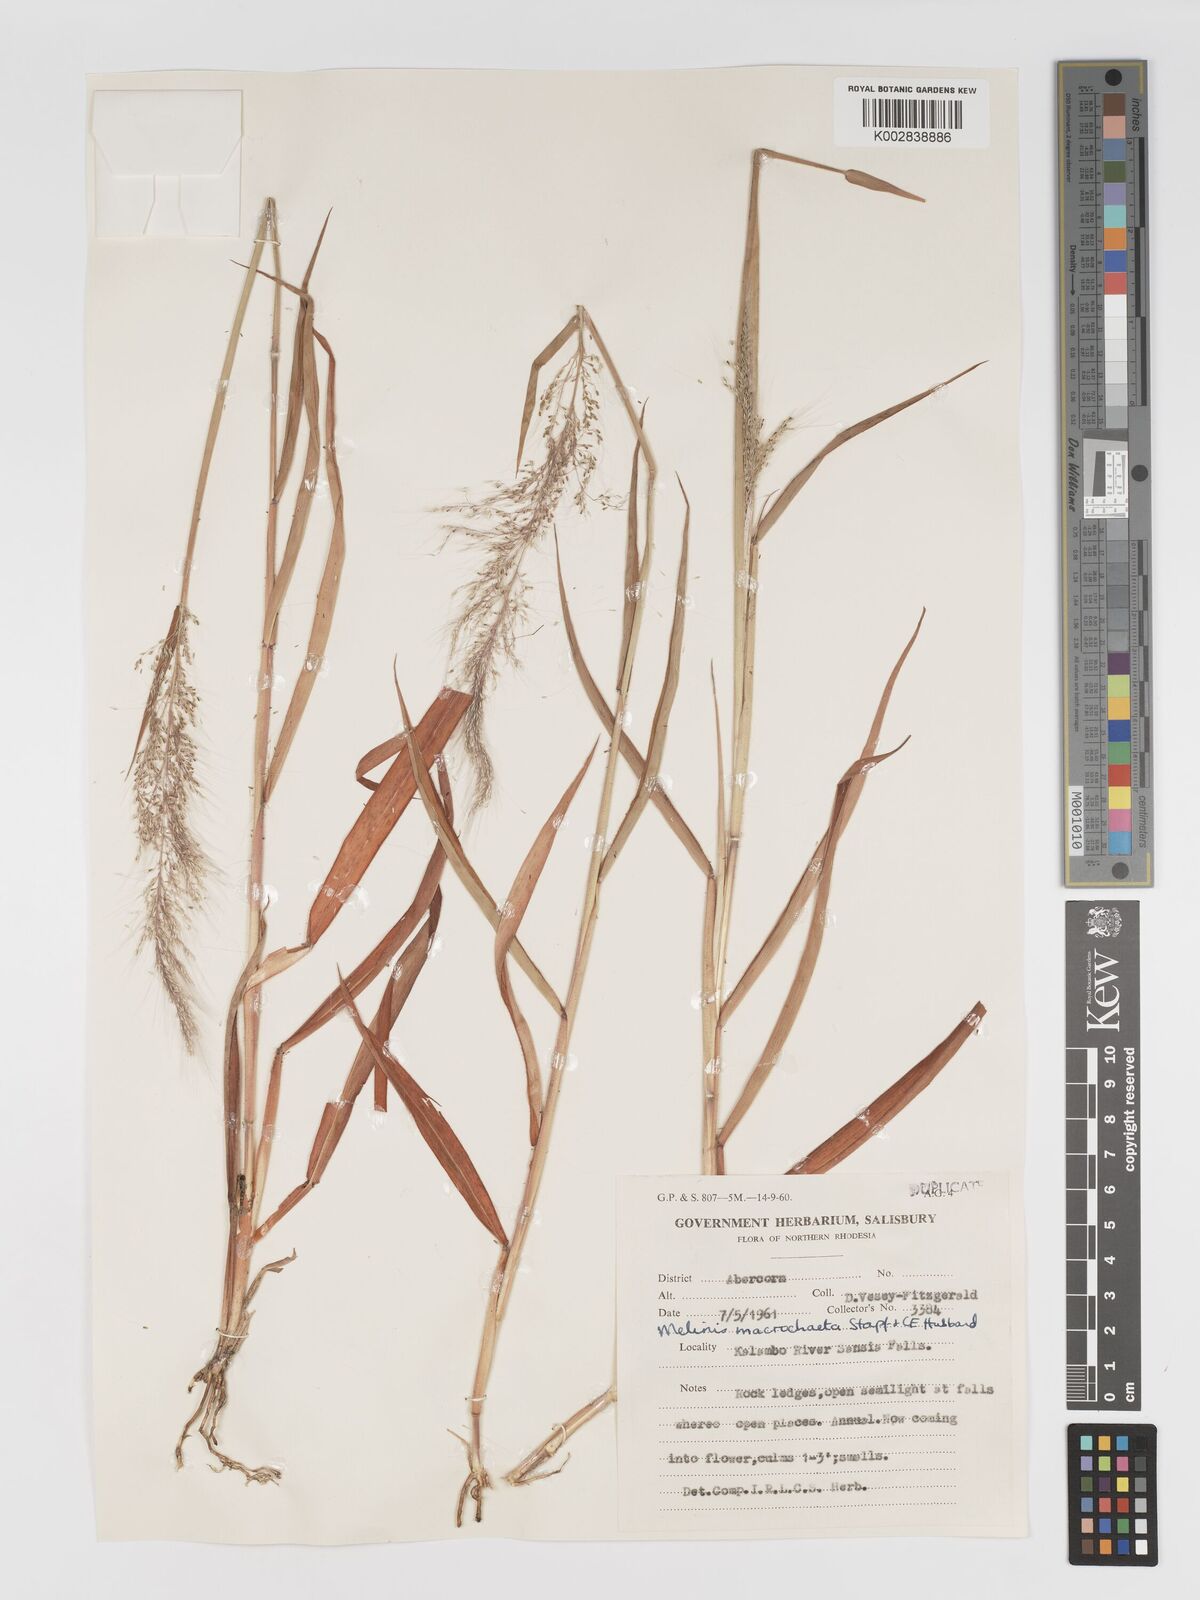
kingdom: Plantae
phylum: Tracheophyta
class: Liliopsida
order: Poales
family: Poaceae
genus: Melinis
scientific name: Melinis macrochaeta
